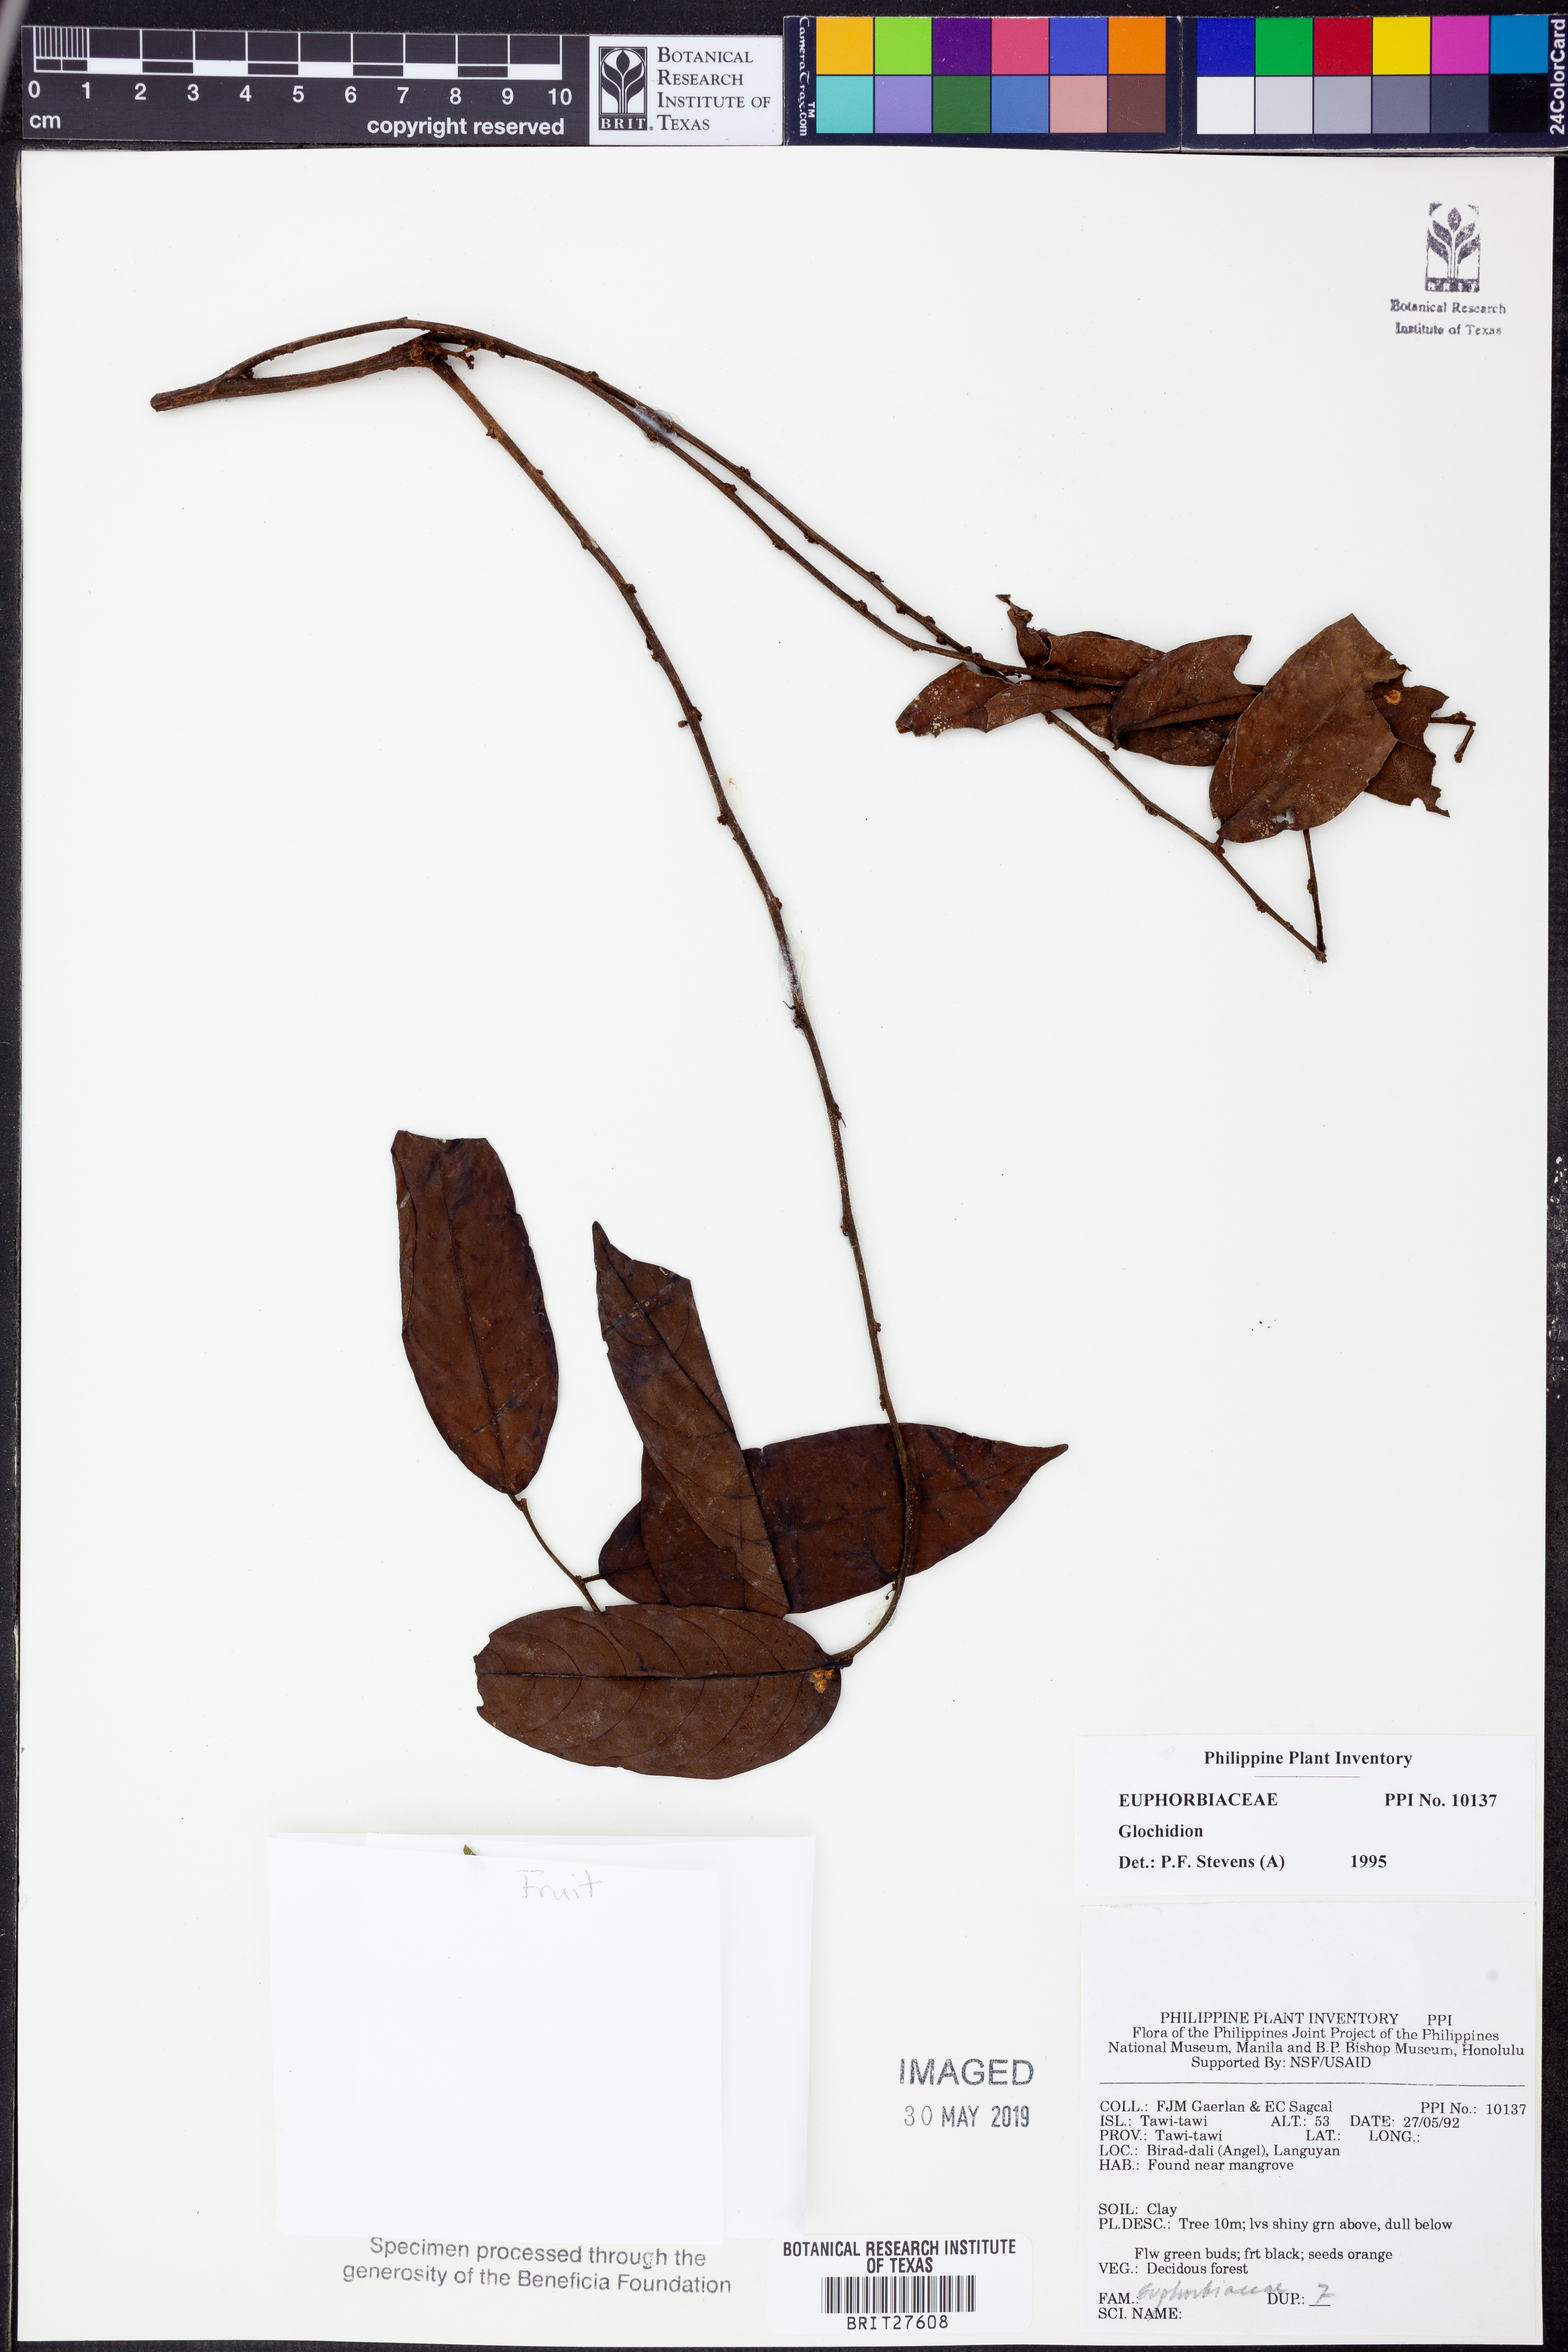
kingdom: Plantae
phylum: Tracheophyta
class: Magnoliopsida
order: Malpighiales
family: Phyllanthaceae
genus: Glochidion
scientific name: Glochidion
